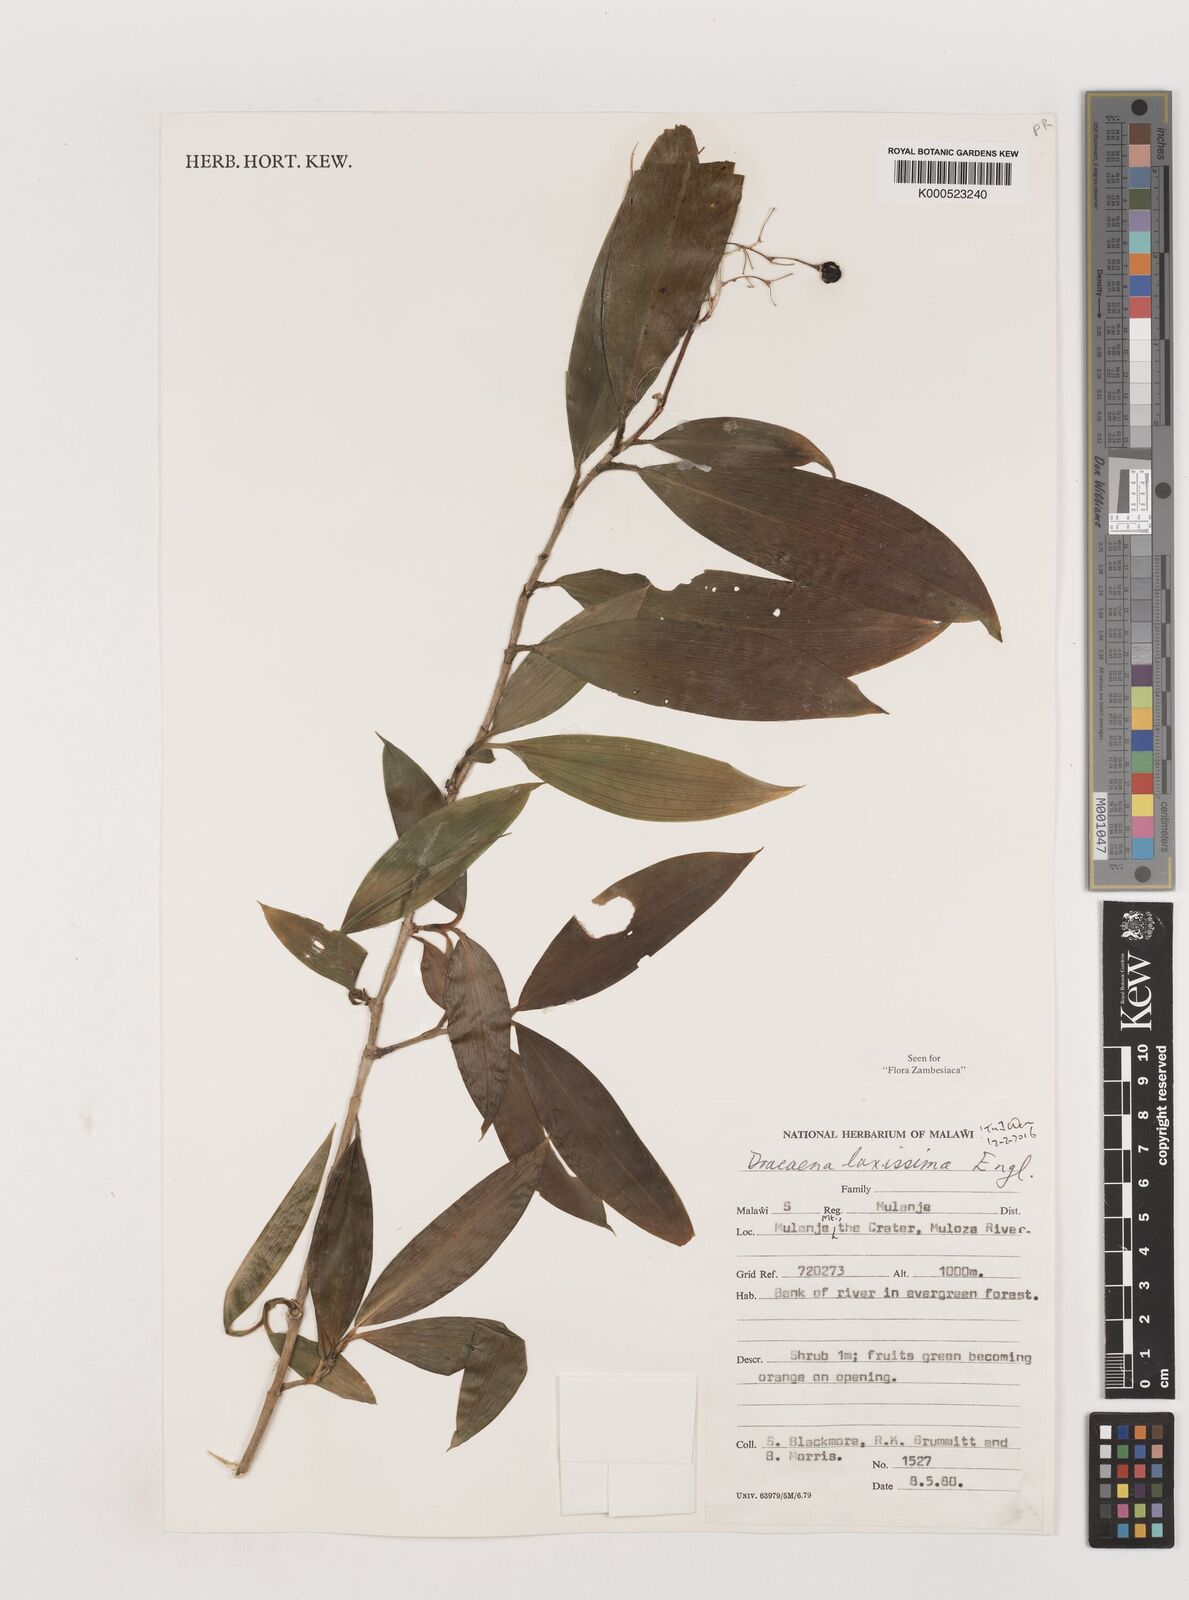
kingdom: Plantae
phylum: Tracheophyta
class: Liliopsida
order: Asparagales
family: Asparagaceae
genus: Dracaena
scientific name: Dracaena laxissima
